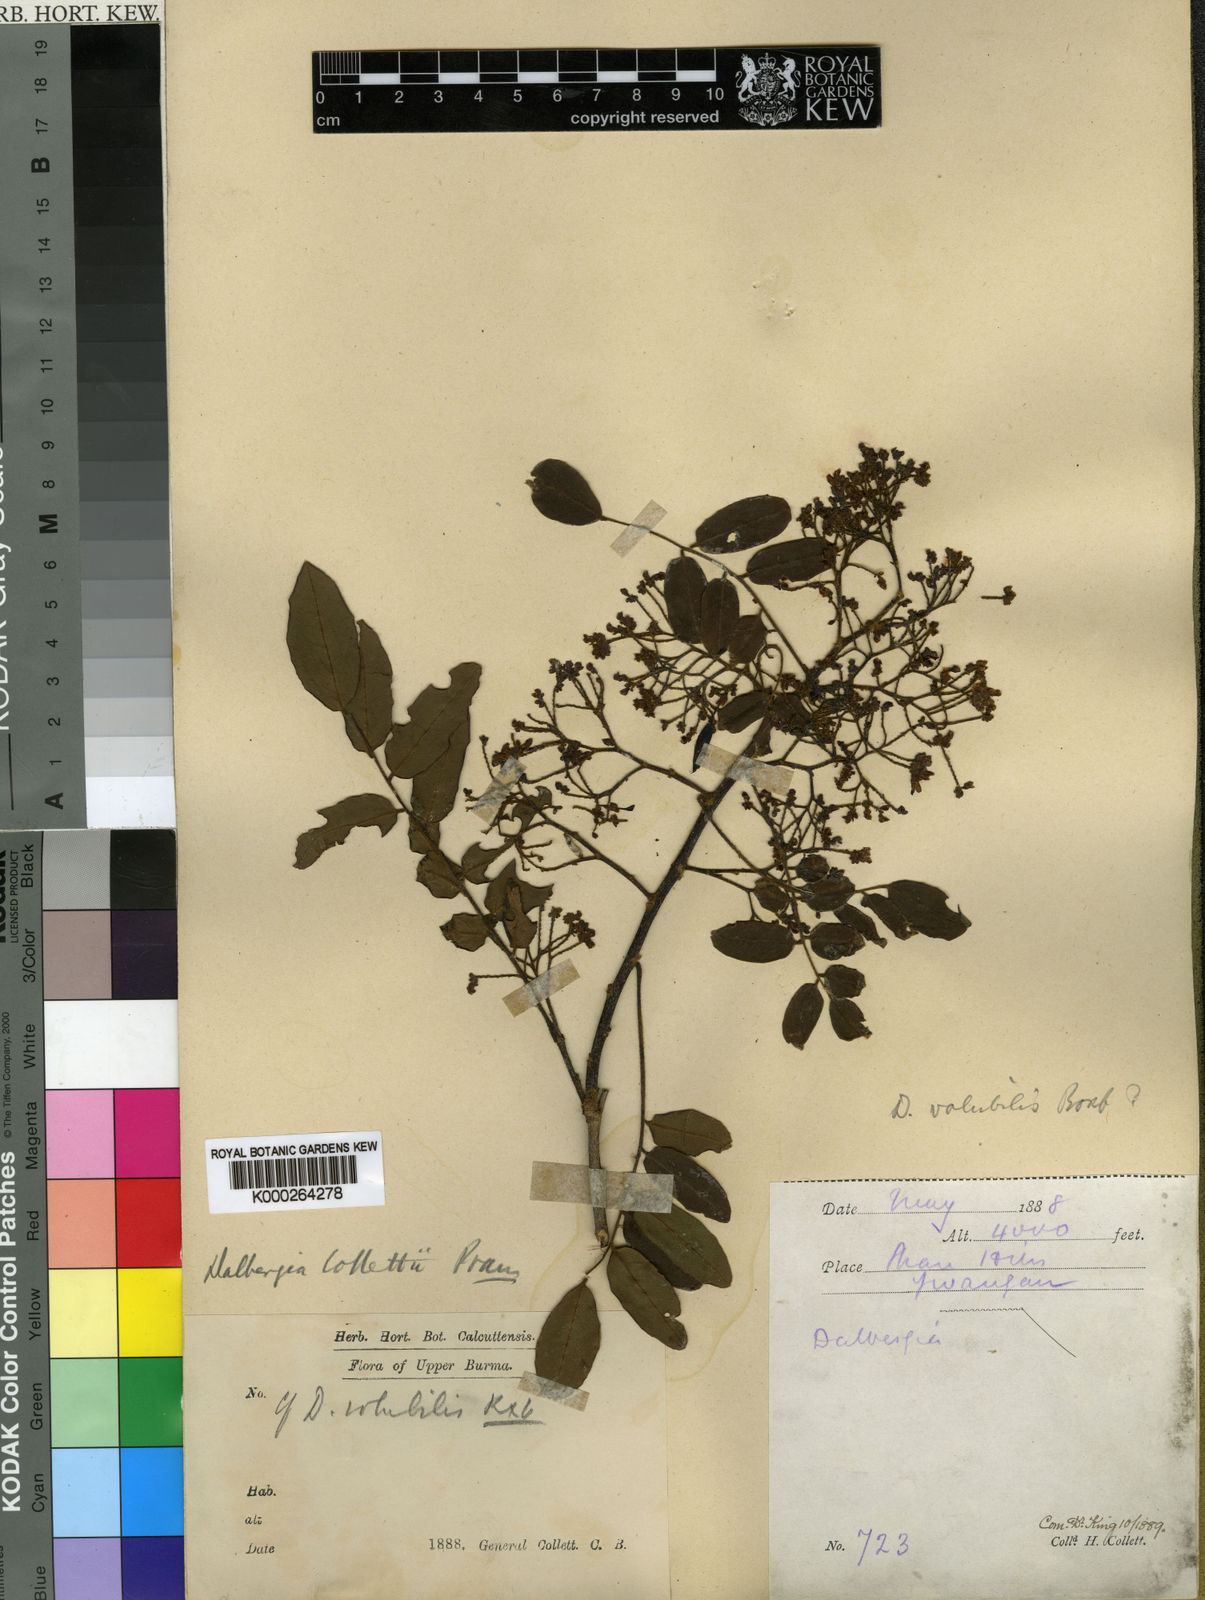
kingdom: Plantae
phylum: Tracheophyta
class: Magnoliopsida
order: Fabales
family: Fabaceae
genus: Dalbergia
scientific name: Dalbergia lanceolaria
